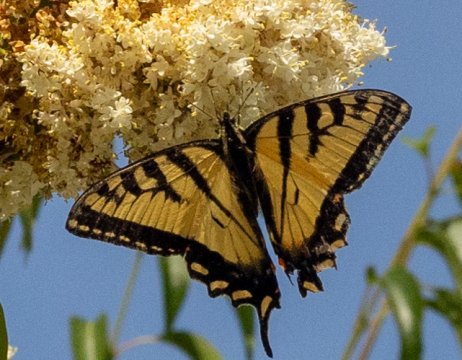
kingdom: Animalia
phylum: Arthropoda
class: Insecta
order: Lepidoptera
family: Papilionidae
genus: Pterourus
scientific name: Pterourus
